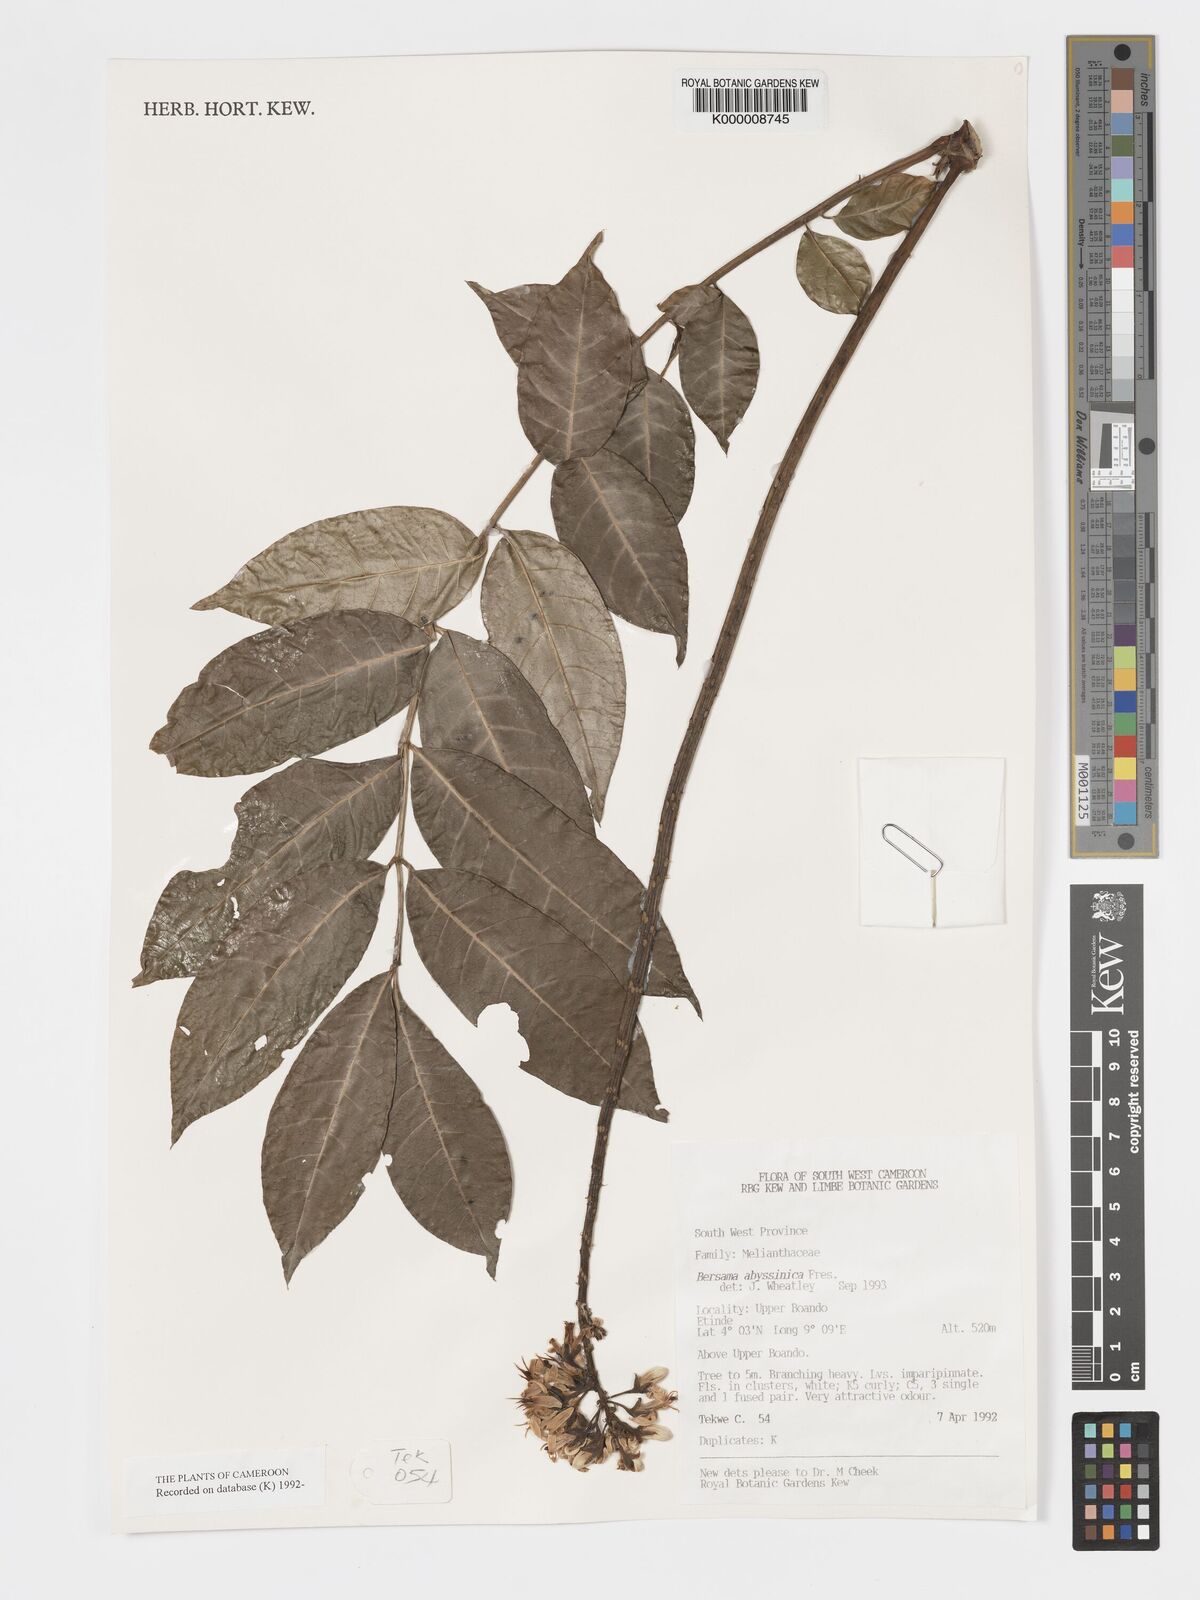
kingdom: Plantae
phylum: Tracheophyta
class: Magnoliopsida
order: Geraniales
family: Melianthaceae
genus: Bersama
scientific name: Bersama abyssinica
